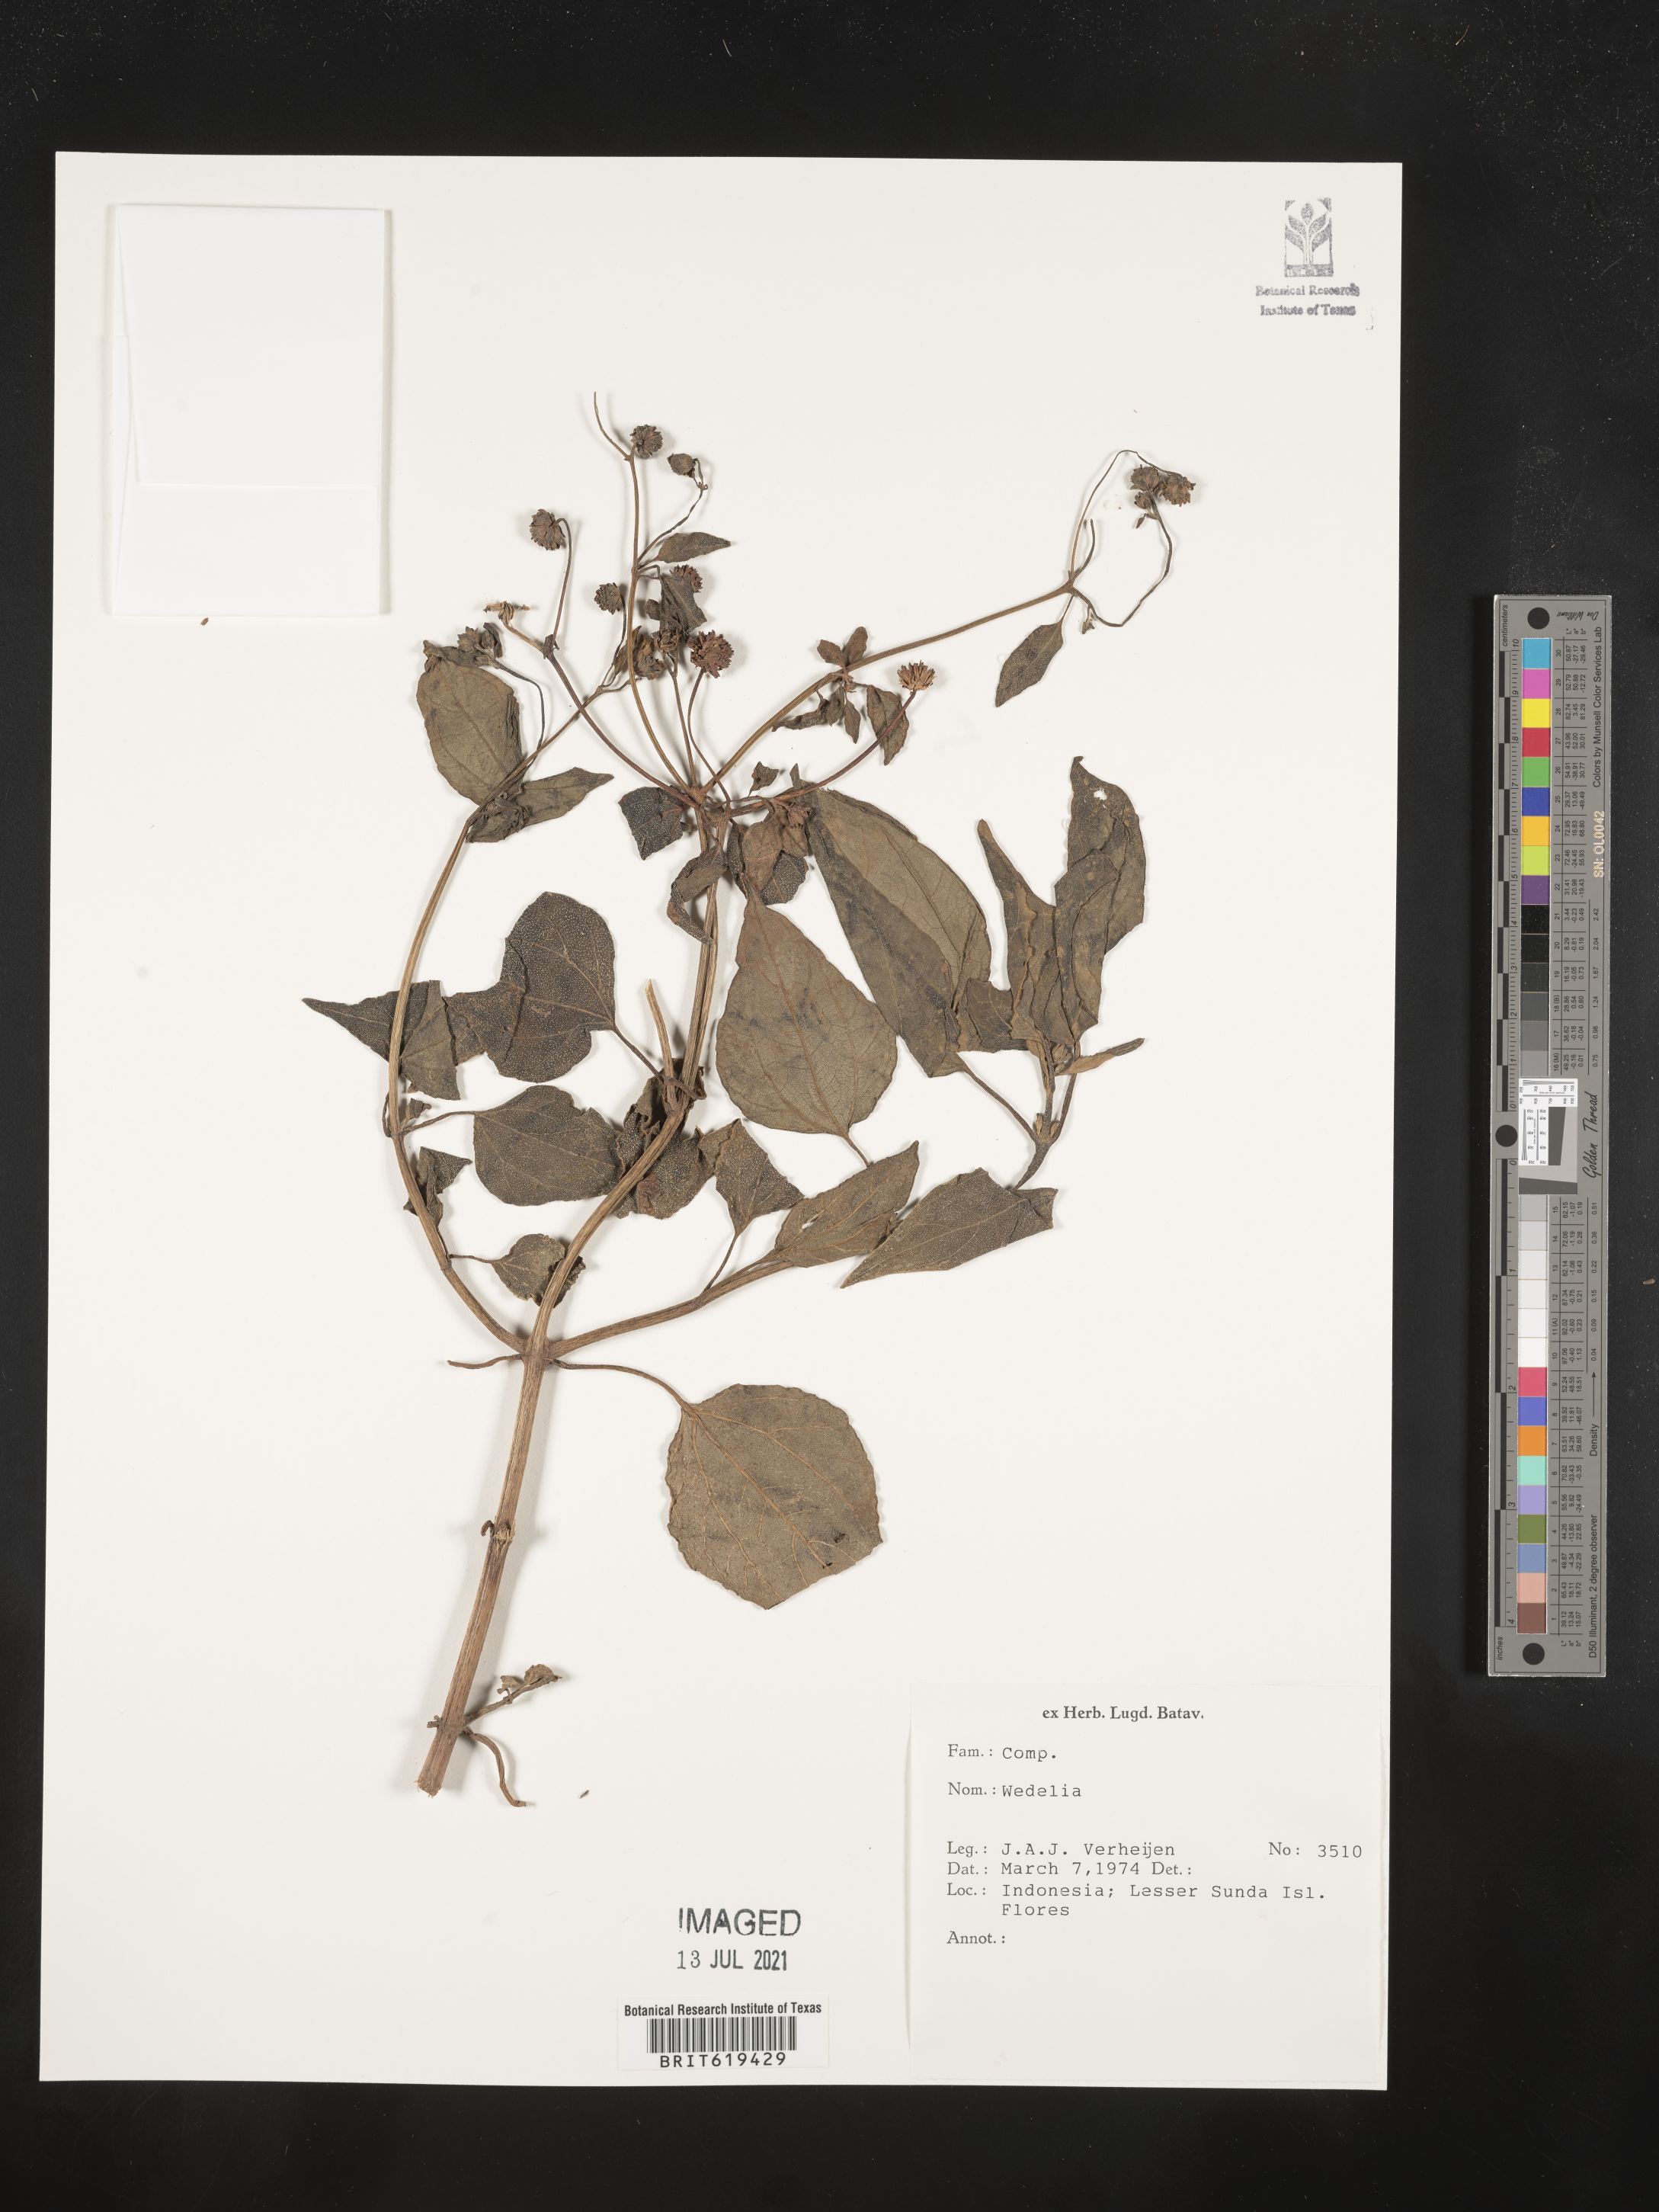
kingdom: Plantae
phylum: Tracheophyta
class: Magnoliopsida
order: Asterales
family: Asteraceae
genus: Wedelia
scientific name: Wedelia
